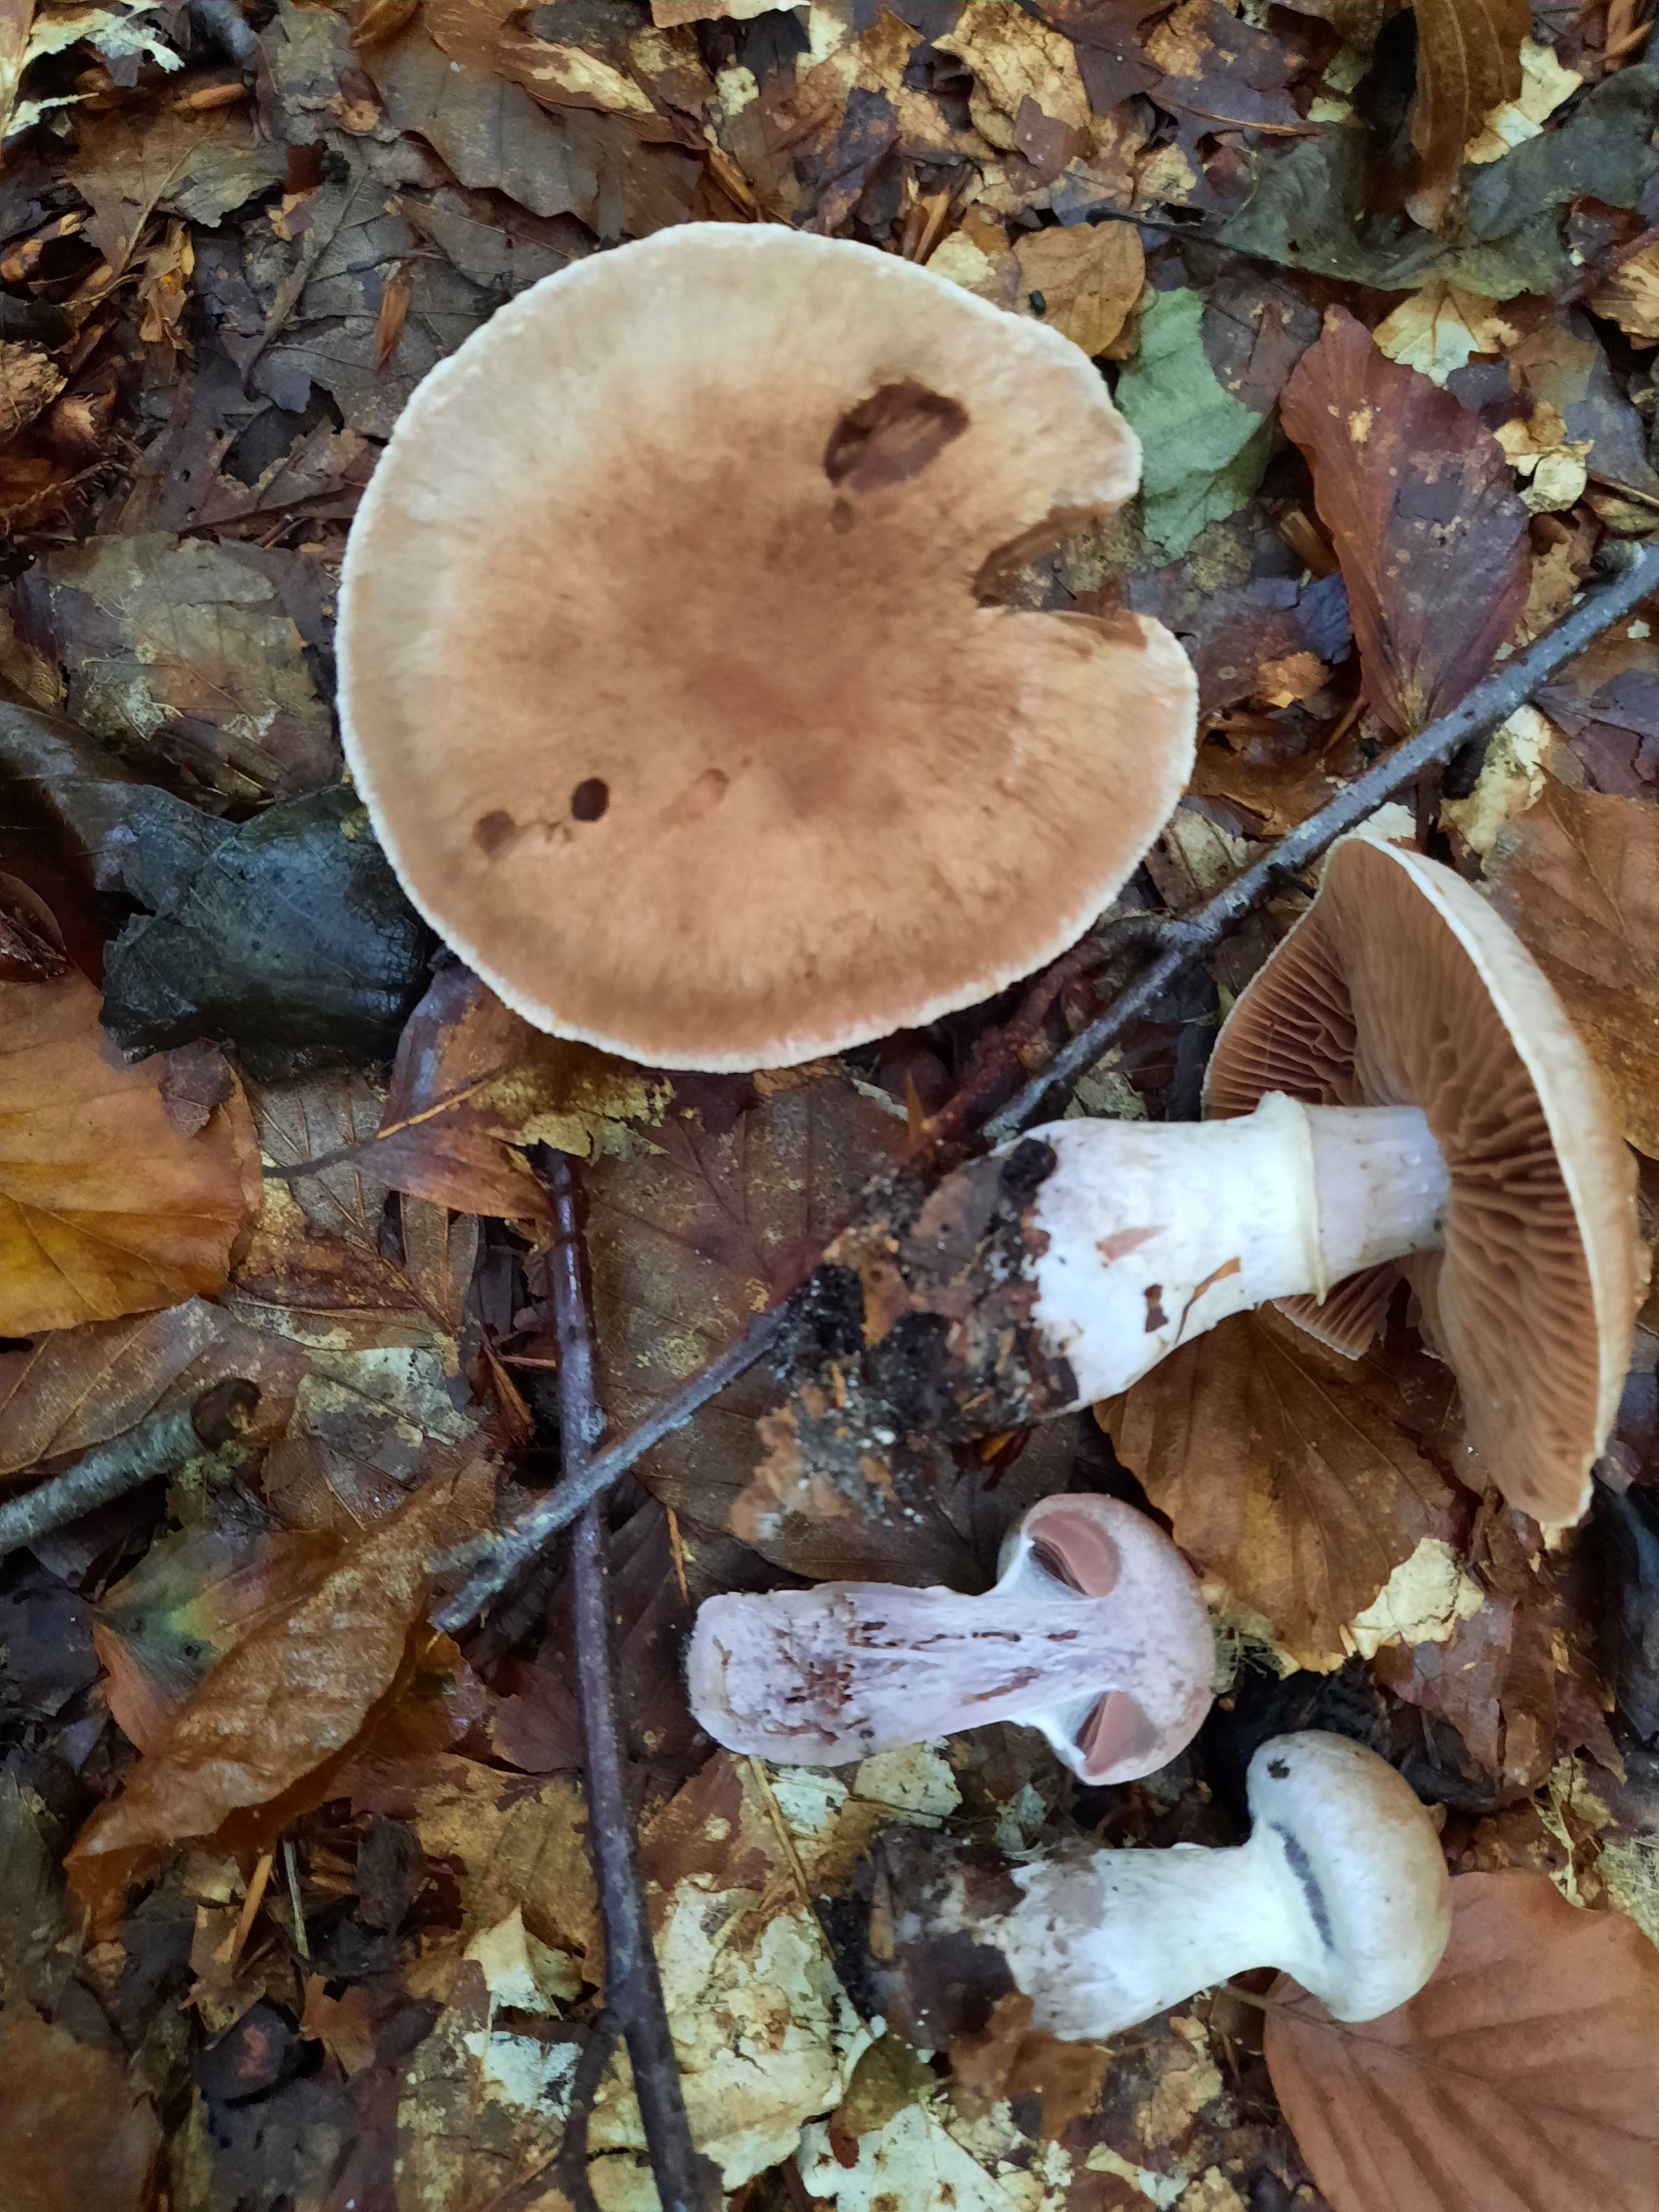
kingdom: Fungi
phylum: Basidiomycota
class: Agaricomycetes
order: Agaricales
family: Cortinariaceae
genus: Cortinarius
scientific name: Cortinarius torvus
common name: champignonagtig slørhat
